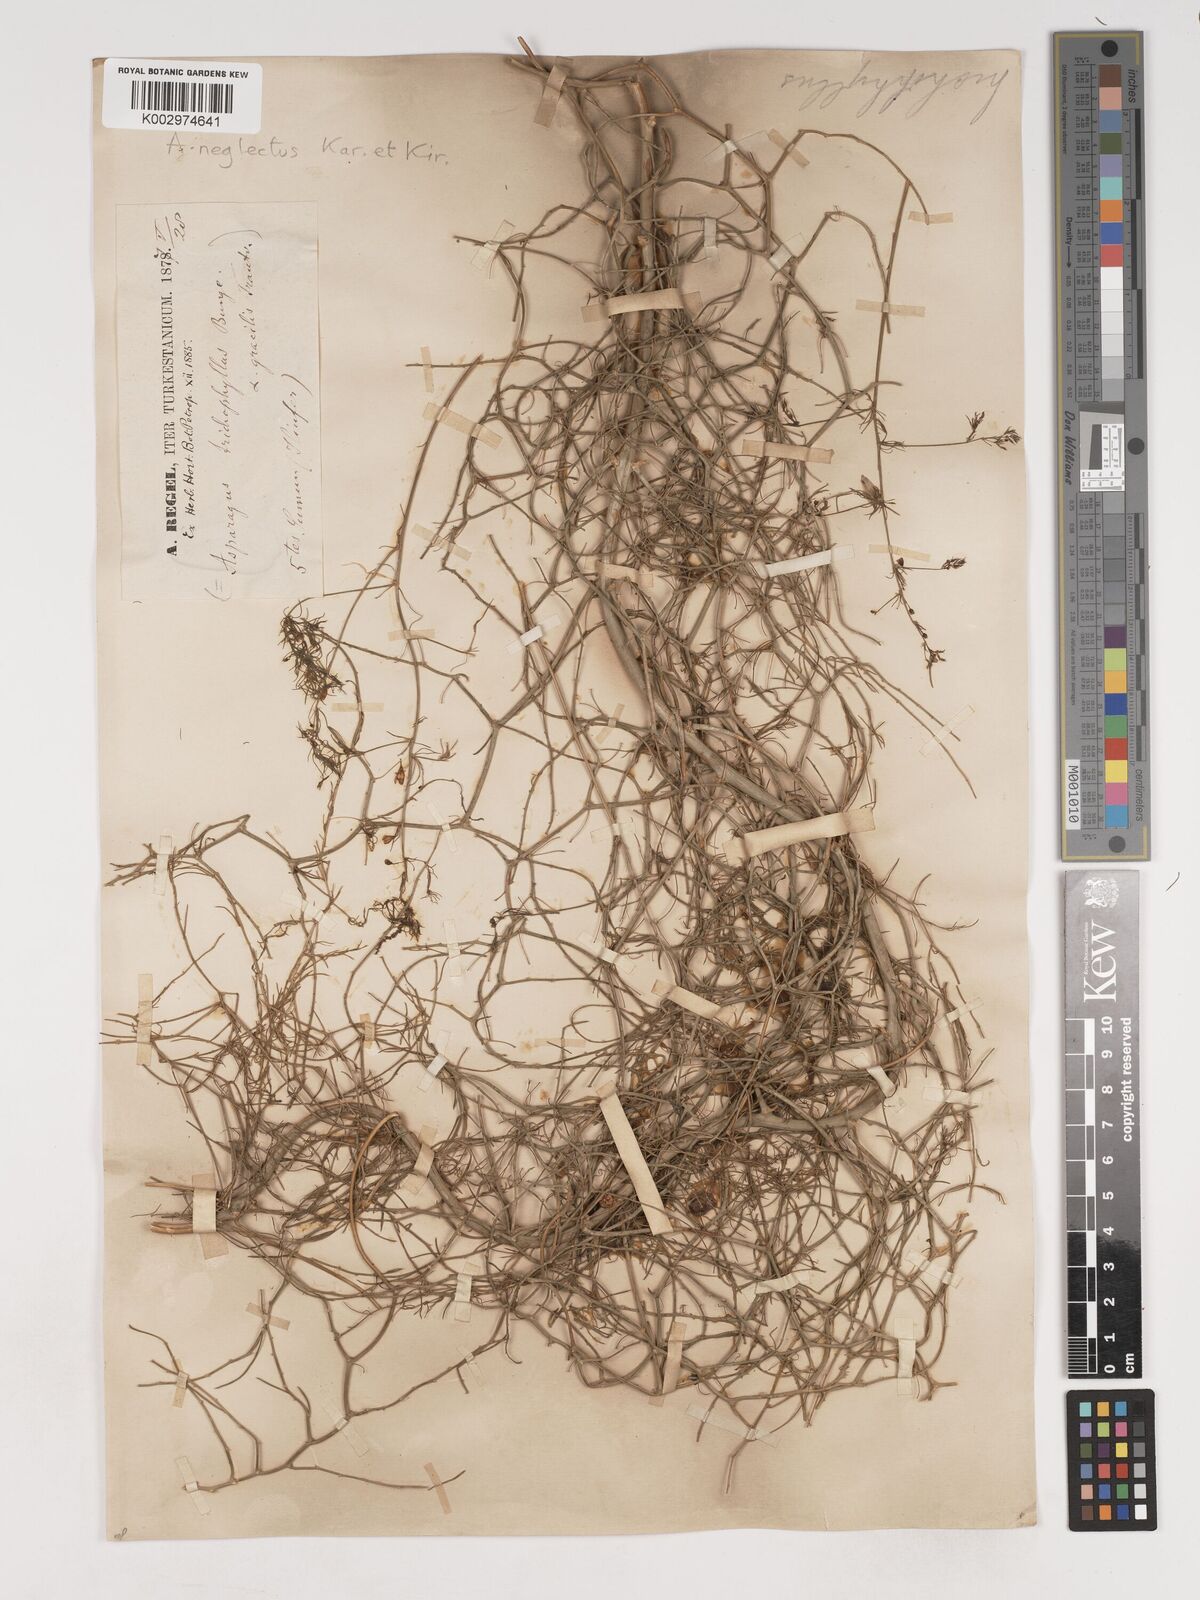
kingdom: Plantae
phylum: Tracheophyta
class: Liliopsida
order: Asparagales
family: Asparagaceae
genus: Asparagus
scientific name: Asparagus neglectus
